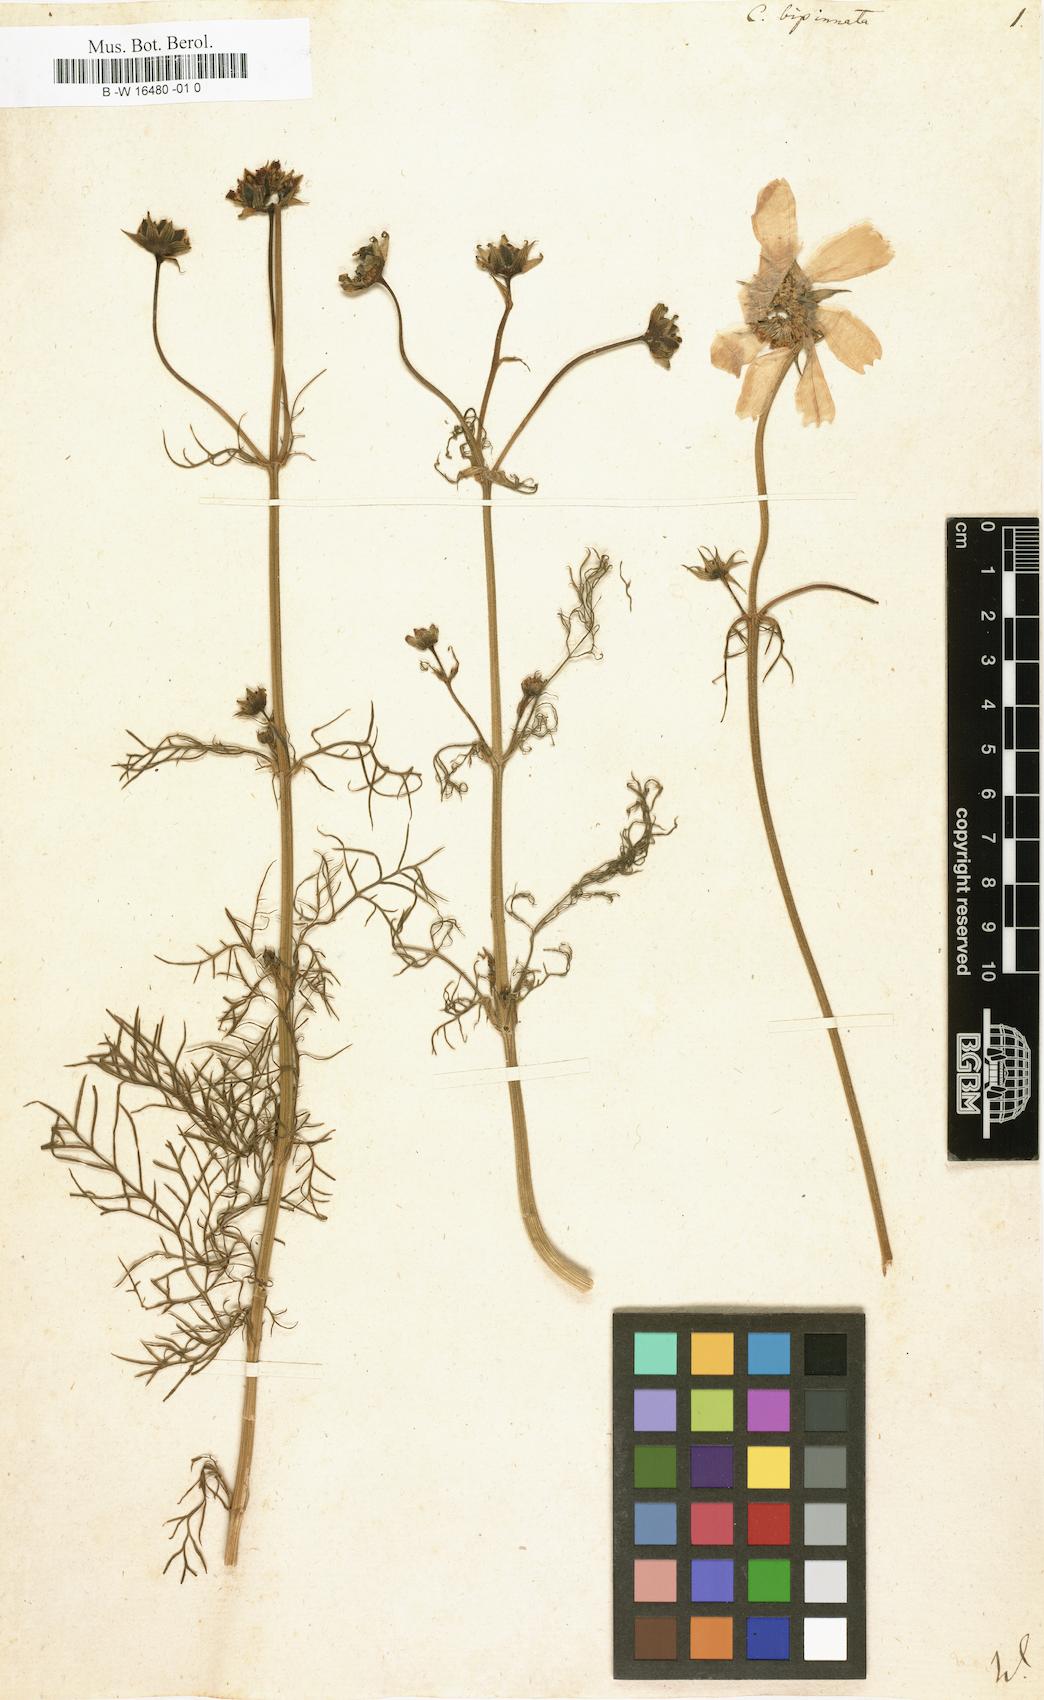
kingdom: Plantae
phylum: Tracheophyta
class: Magnoliopsida
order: Asterales
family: Asteraceae
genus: Cosmos
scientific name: Cosmos bipinnatus
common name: Garden cosmos
